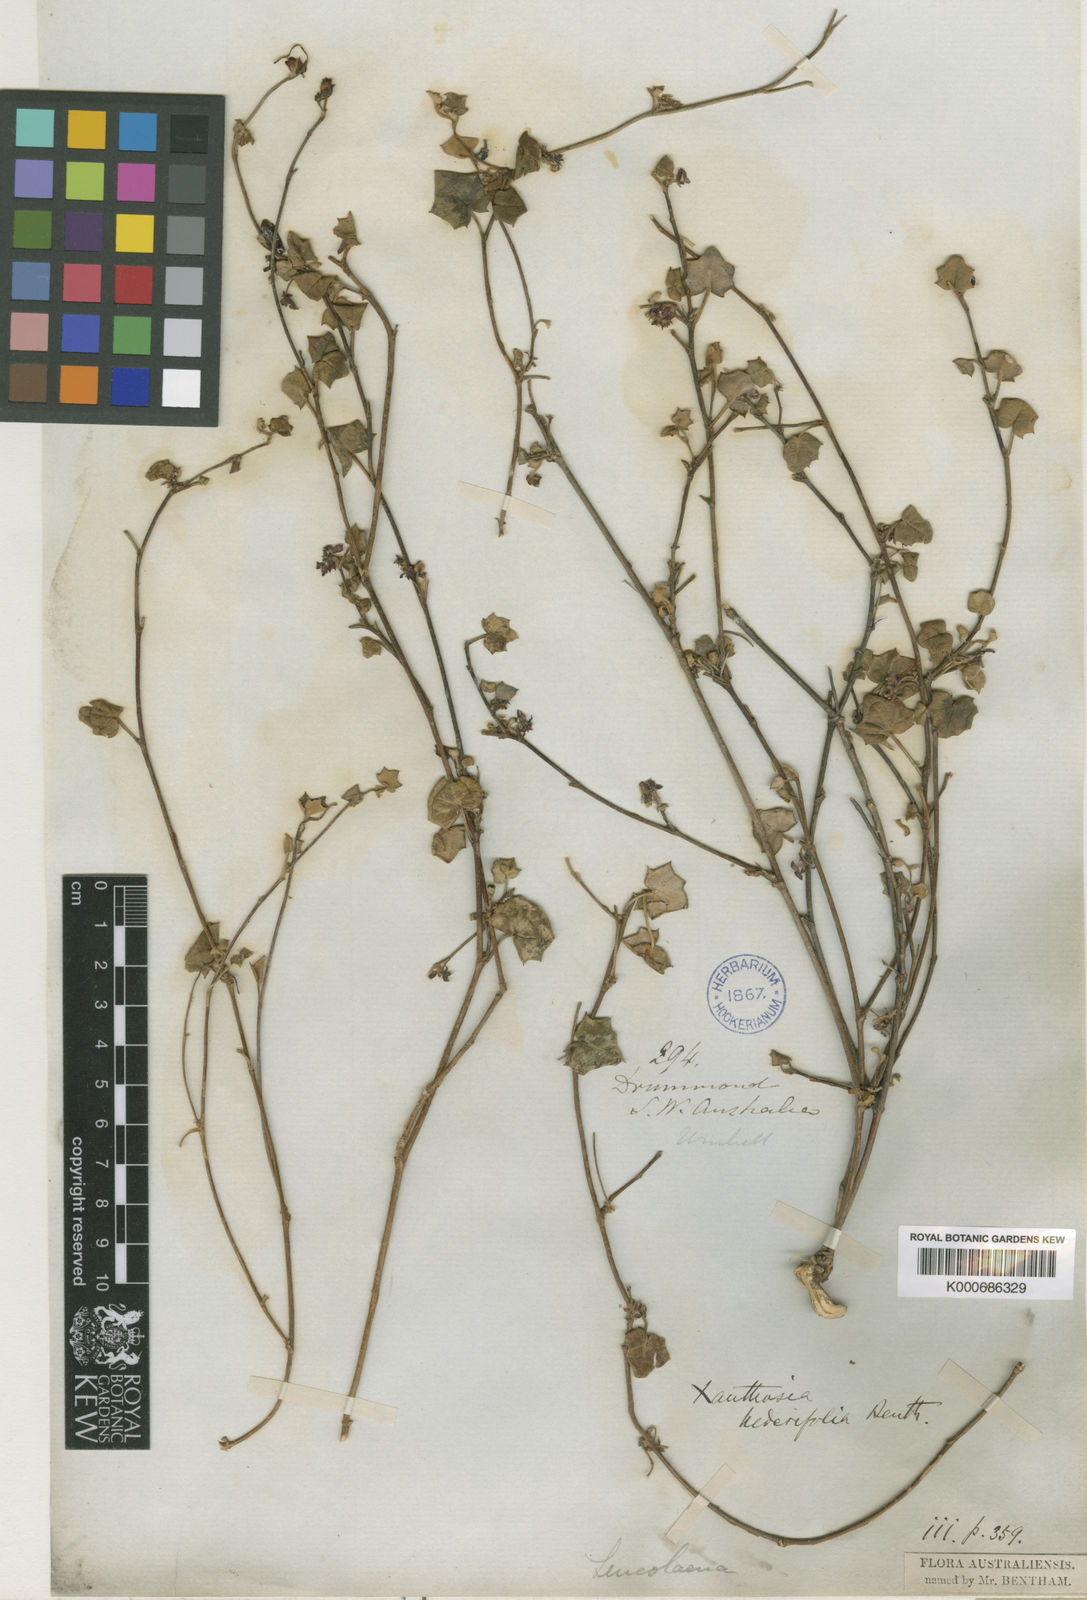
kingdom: Plantae
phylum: Tracheophyta
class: Magnoliopsida
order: Apiales
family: Apiaceae
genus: Xanthosia
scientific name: Xanthosia hederifolia
